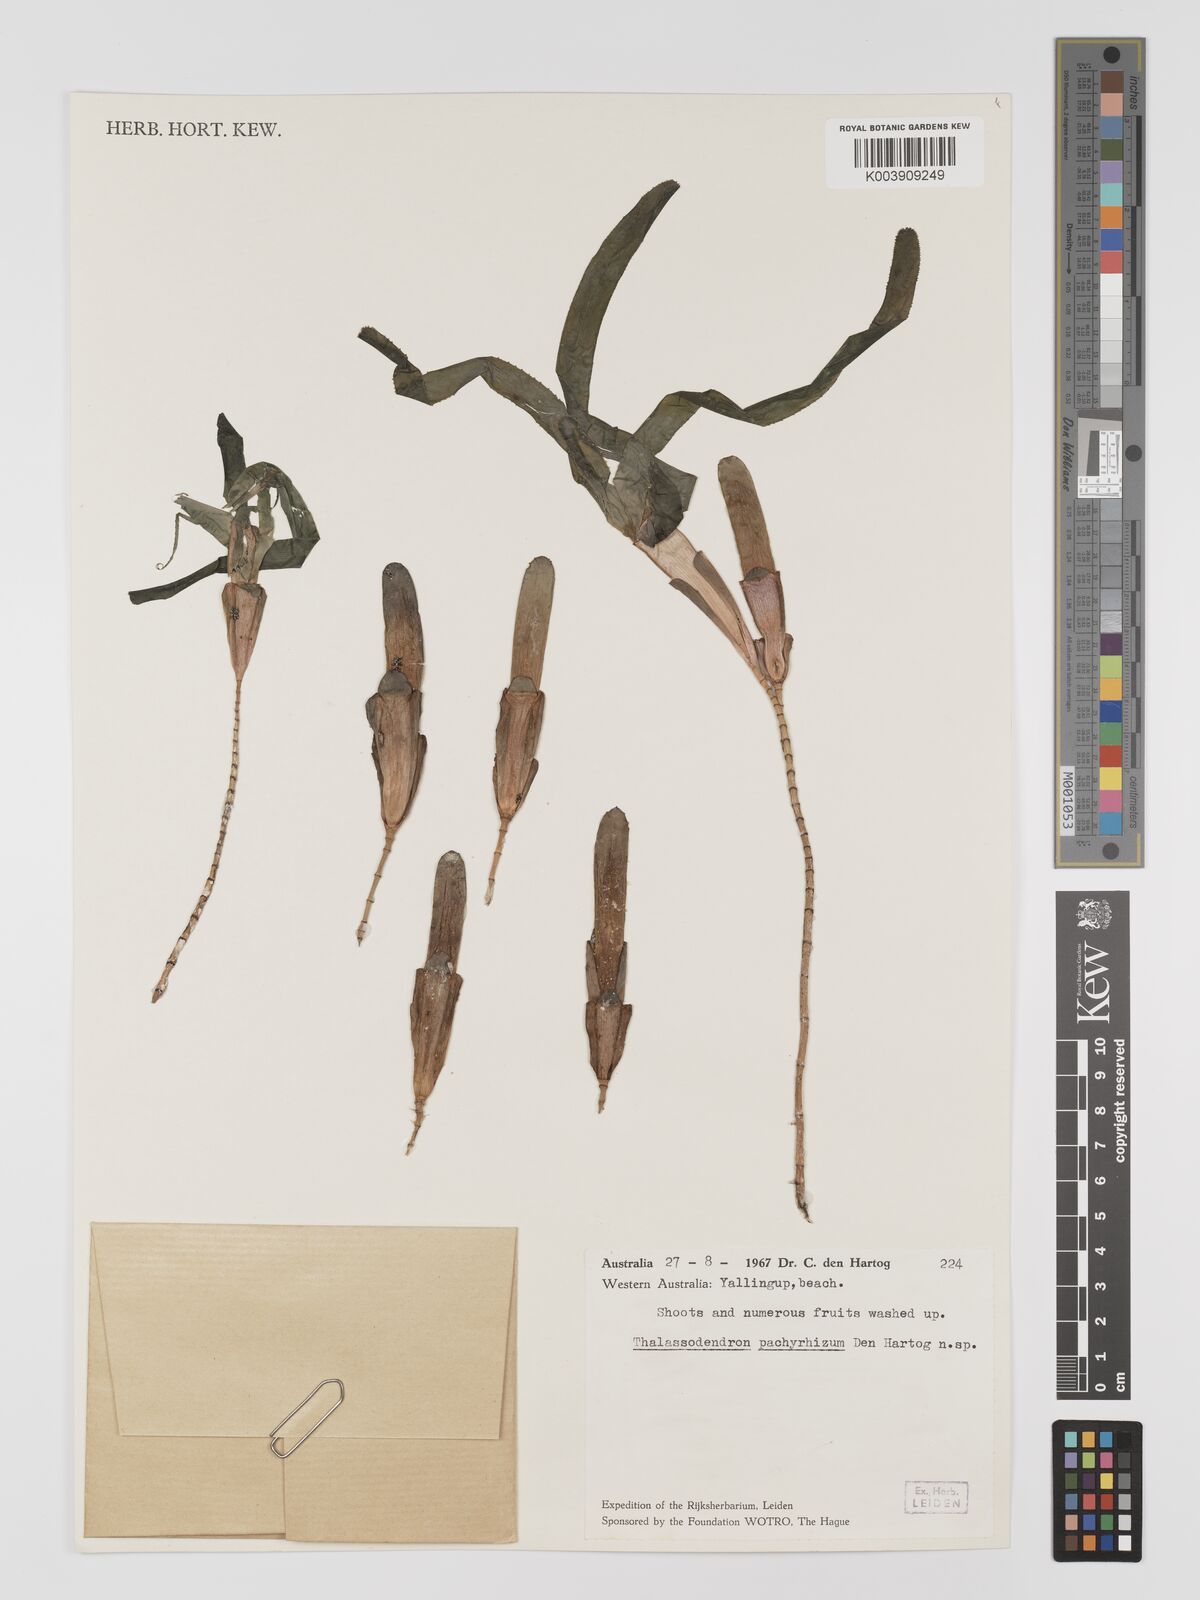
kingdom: Plantae
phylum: Tracheophyta
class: Liliopsida
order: Alismatales
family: Cymodoceaceae
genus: Thalassodendron
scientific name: Thalassodendron pachyrhizum
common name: Species code: tp
